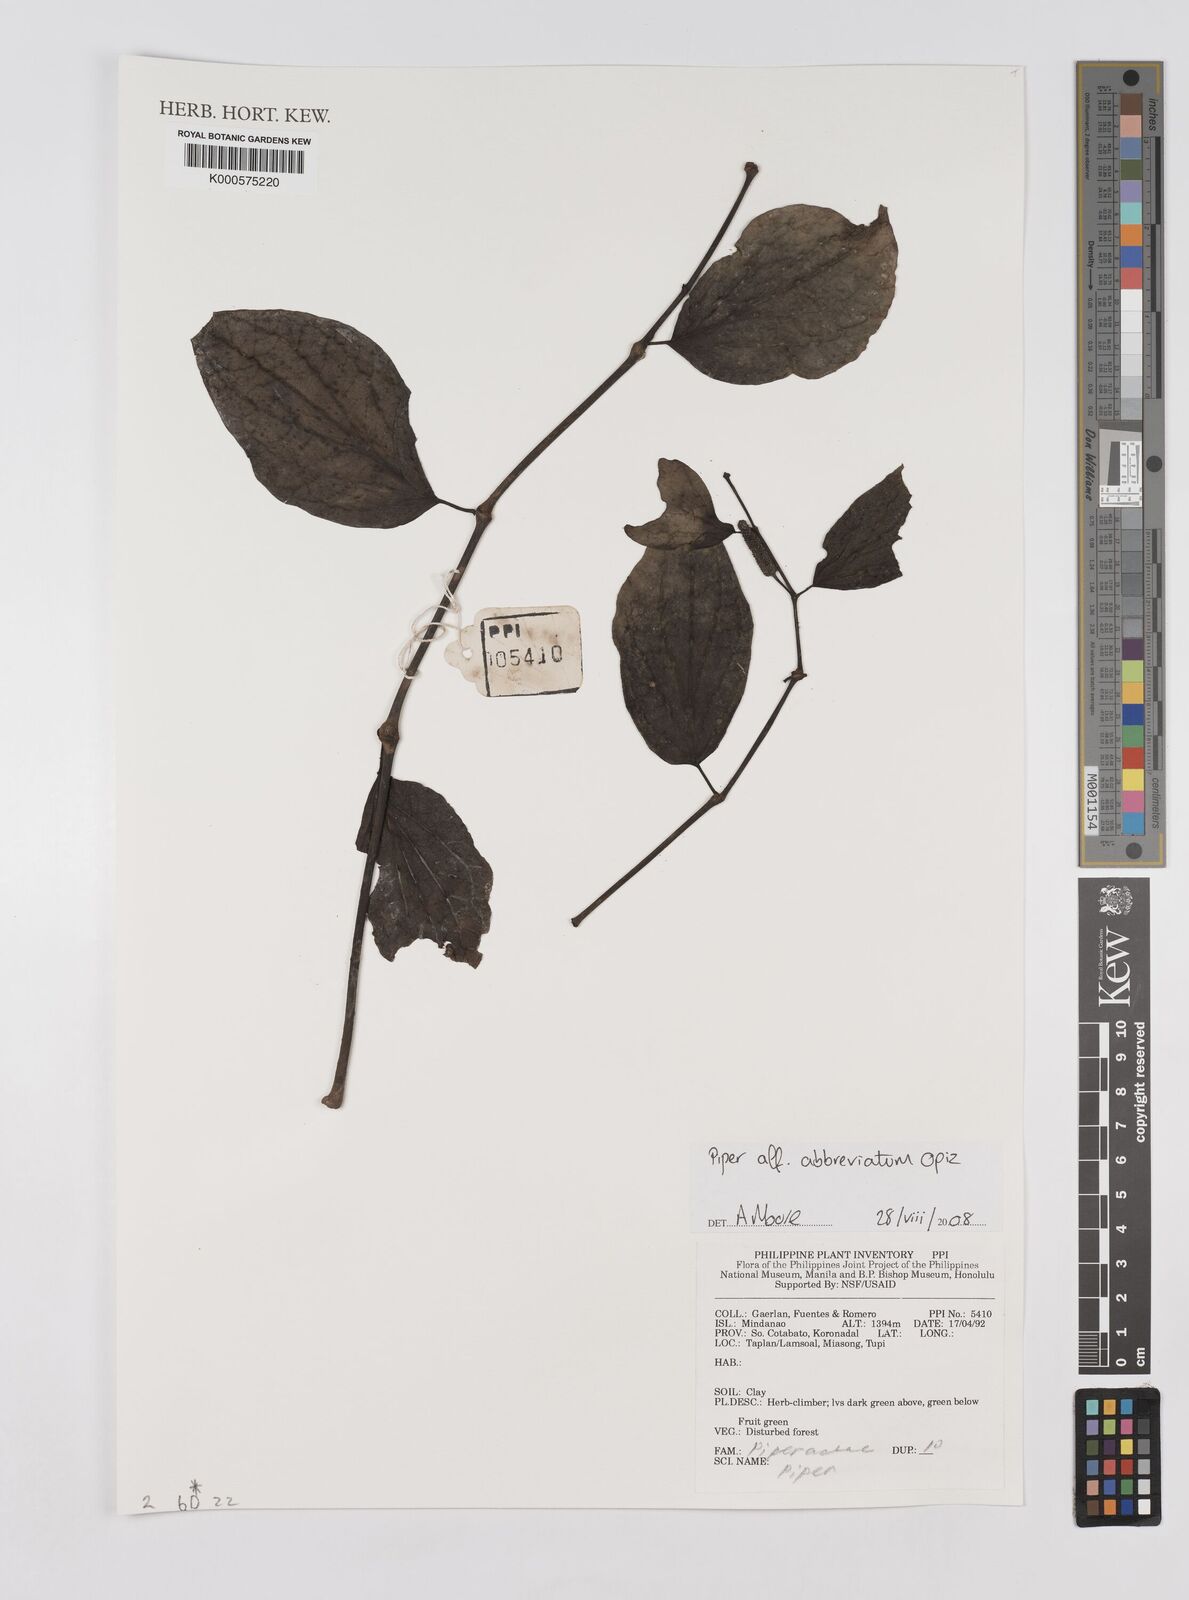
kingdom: Plantae
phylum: Tracheophyta
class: Magnoliopsida
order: Piperales
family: Piperaceae
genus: Piper
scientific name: Piper abbreviatum
